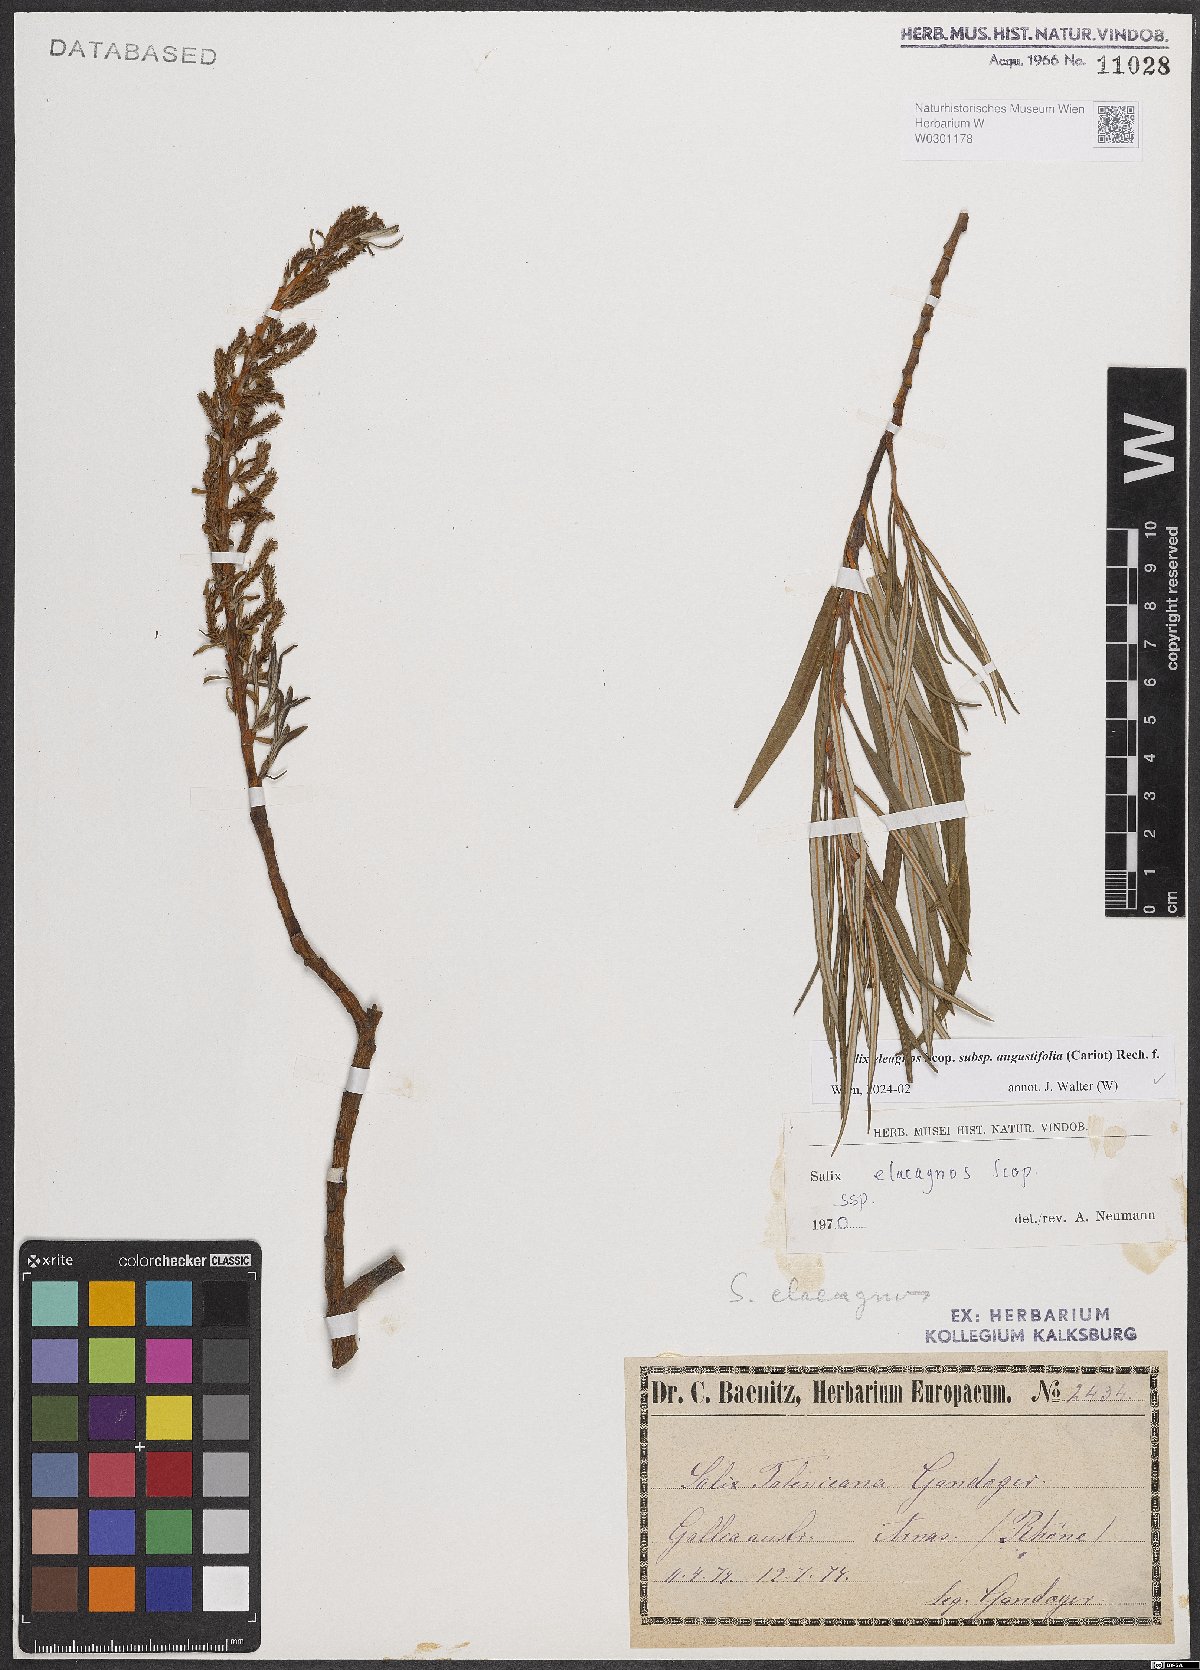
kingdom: Plantae
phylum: Tracheophyta
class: Magnoliopsida
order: Malpighiales
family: Salicaceae
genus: Salix
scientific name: Salix eleagnos
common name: Elaeagnus willow
